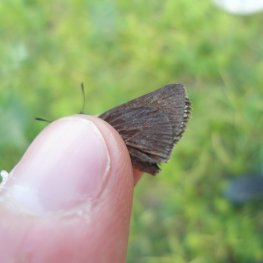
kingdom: Animalia
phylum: Arthropoda
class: Insecta
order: Lepidoptera
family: Hesperiidae
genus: Euphyes
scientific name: Euphyes vestris
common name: Dun Skipper
